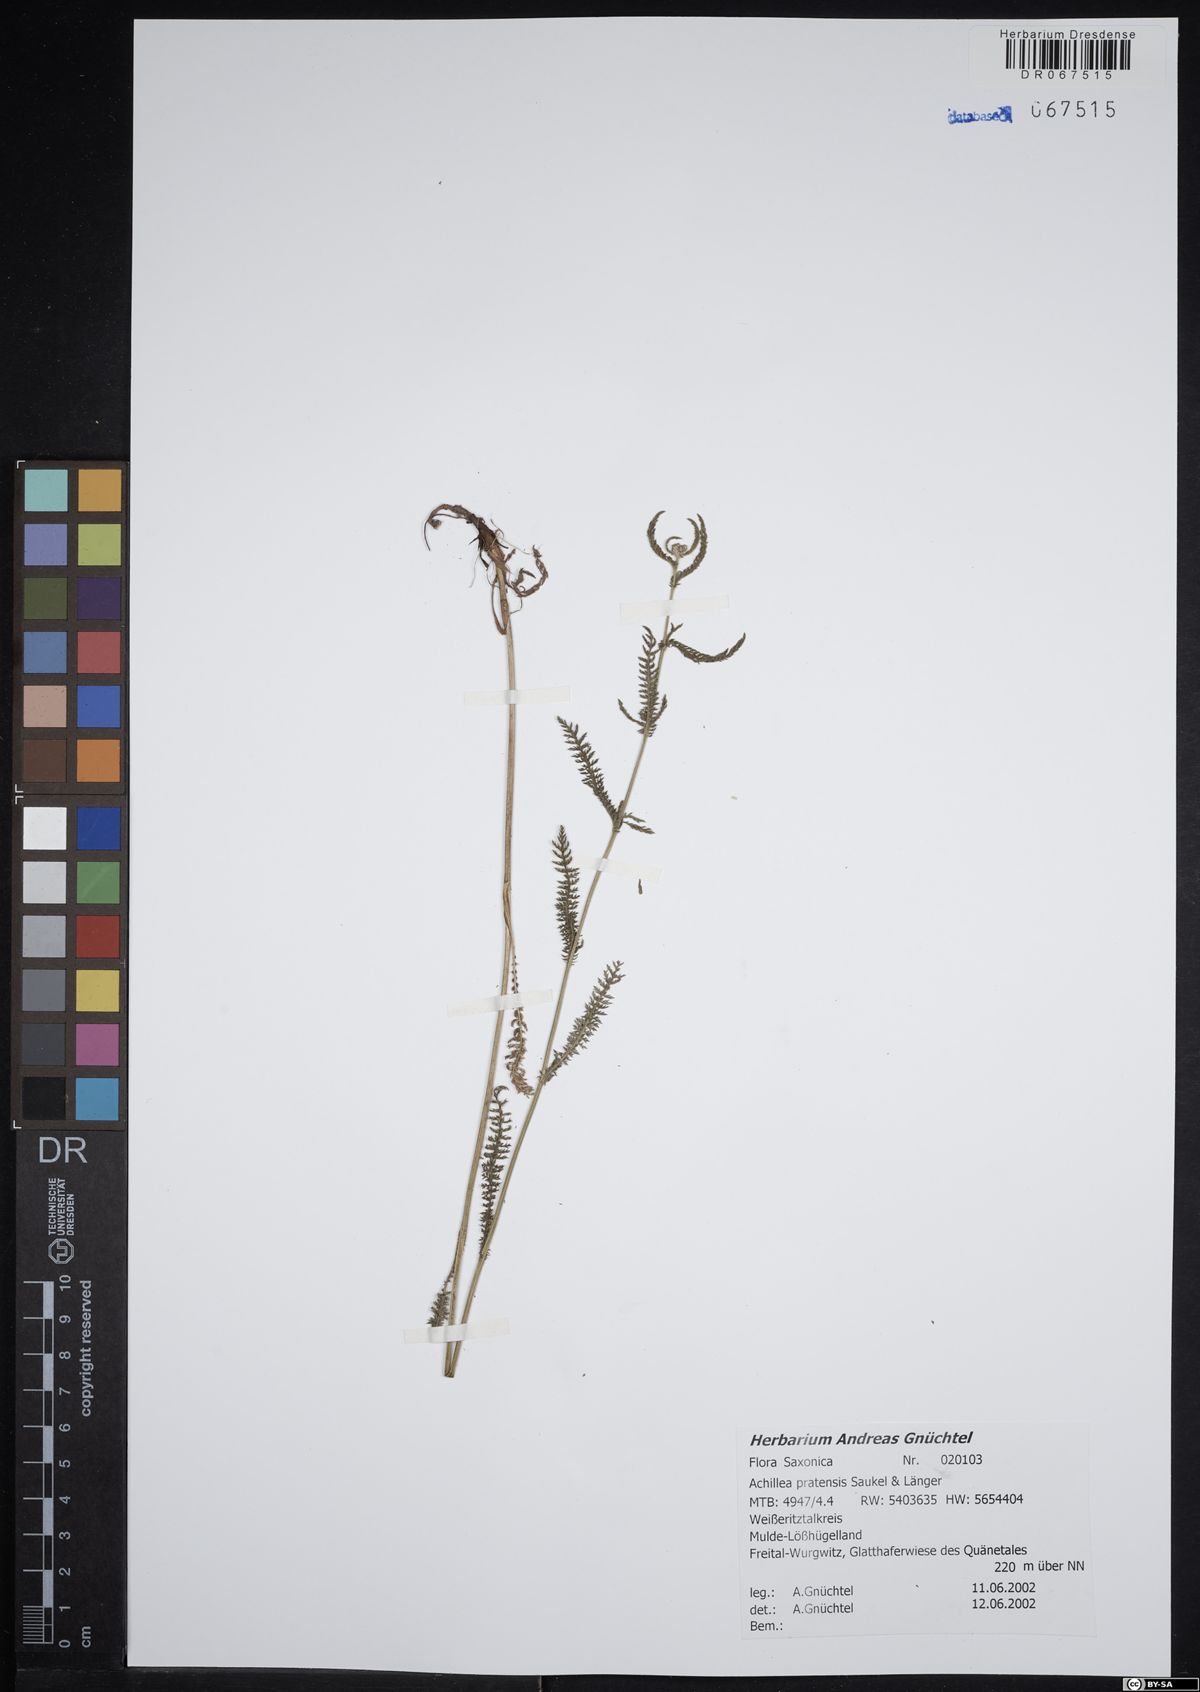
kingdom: Plantae
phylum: Tracheophyta
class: Magnoliopsida
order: Asterales
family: Asteraceae
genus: Achillea
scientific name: Achillea pratensis
